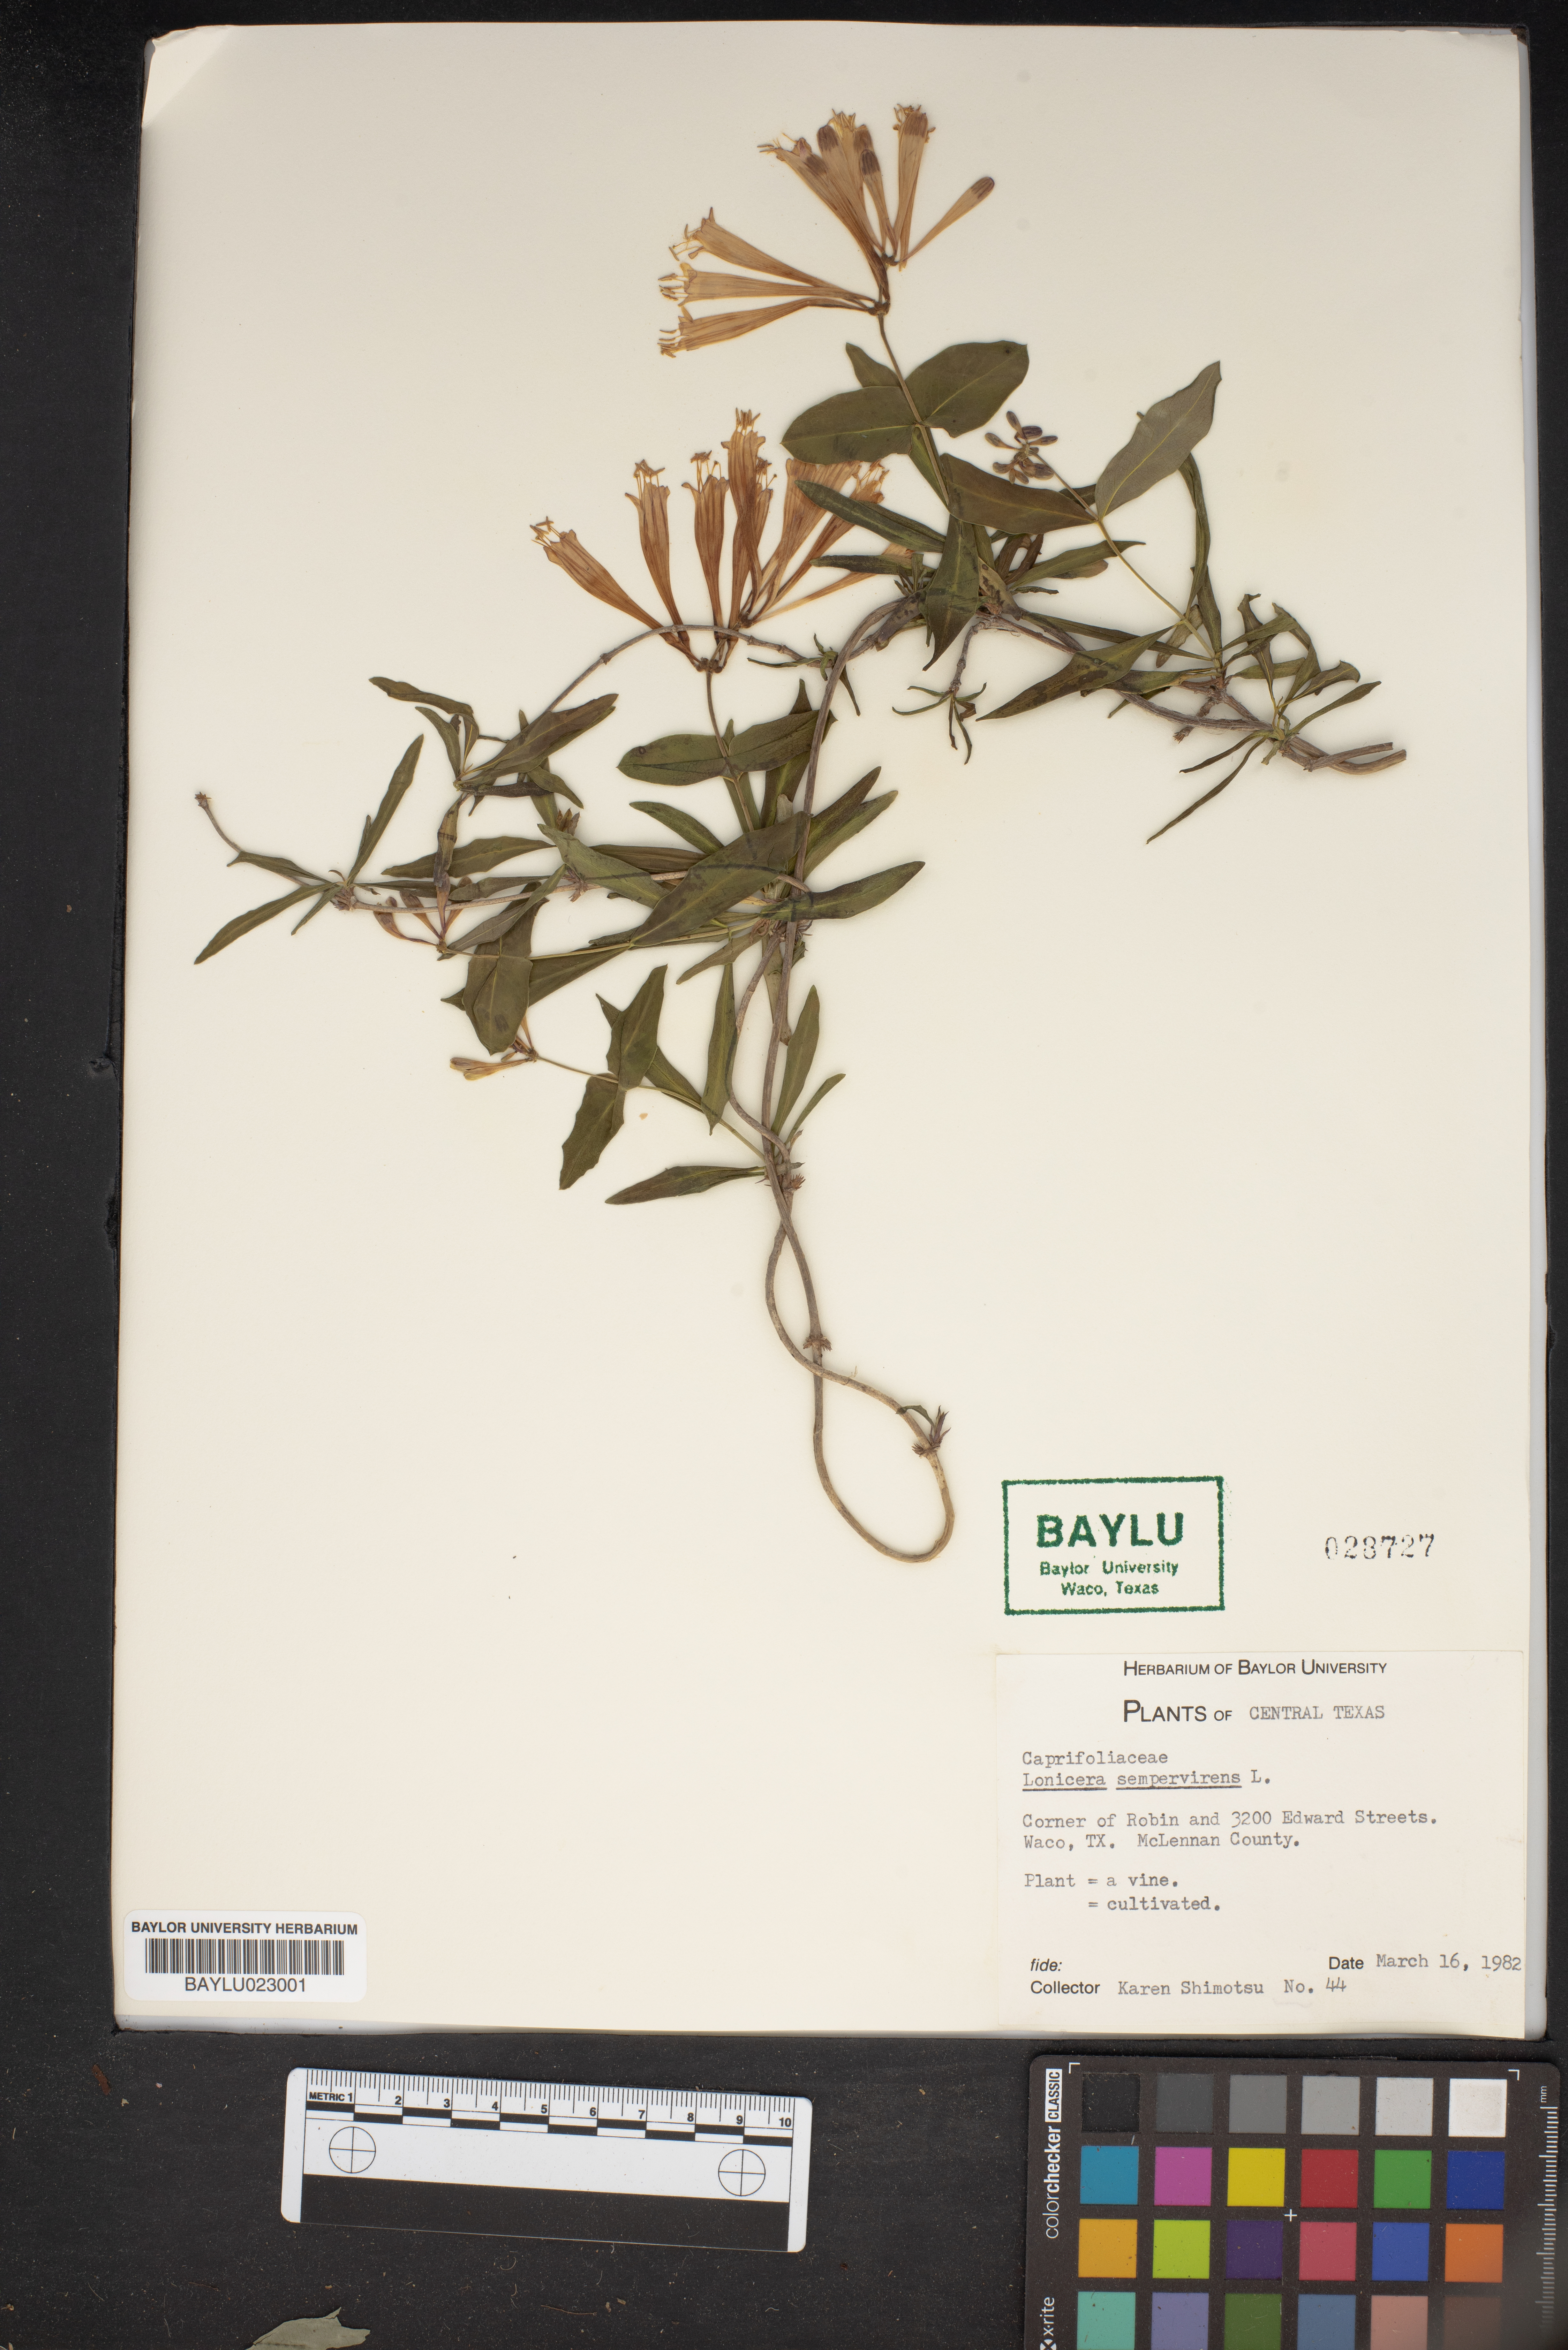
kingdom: Plantae
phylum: Tracheophyta
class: Magnoliopsida
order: Dipsacales
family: Caprifoliaceae
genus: Lonicera
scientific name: Lonicera sempervirens
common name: Coral honeysuckle
